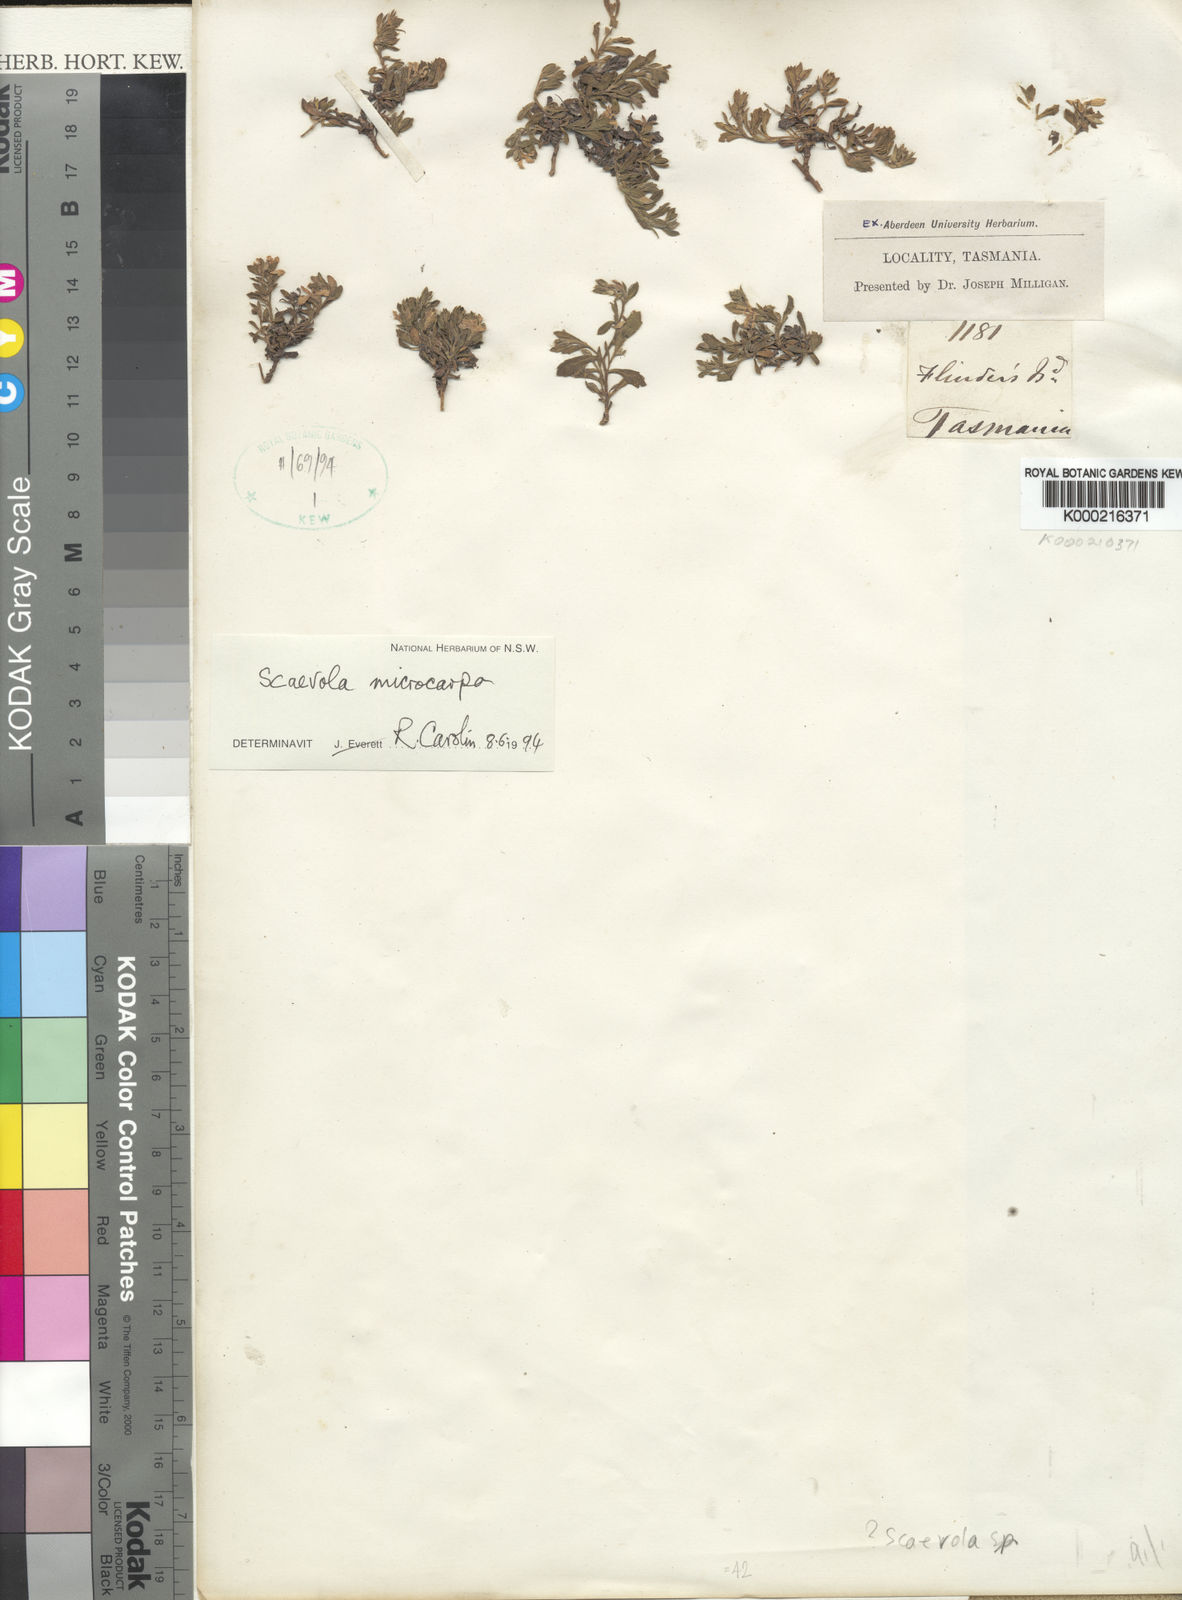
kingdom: Plantae
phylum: Tracheophyta
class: Magnoliopsida
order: Asterales
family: Goodeniaceae
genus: Scaevola
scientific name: Scaevola albida
